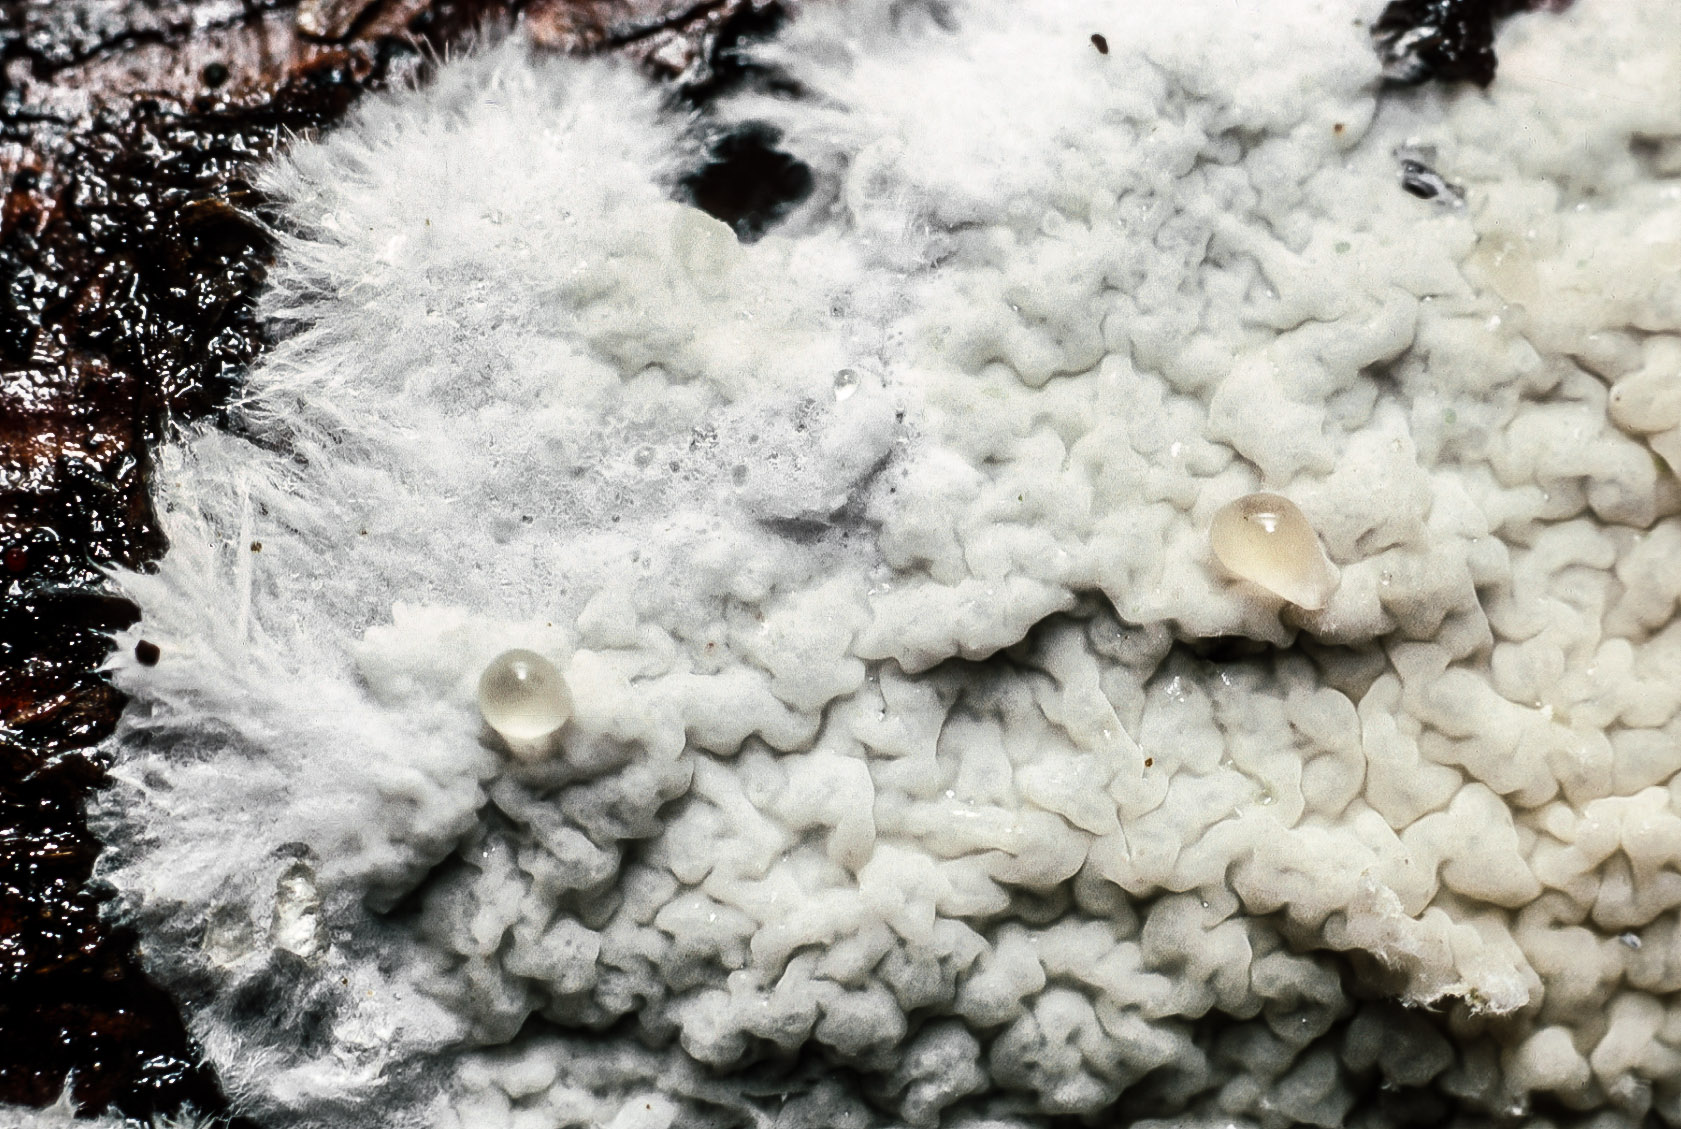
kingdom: Fungi
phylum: Basidiomycota
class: Agaricomycetes
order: Agaricales
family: Pterulaceae
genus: Merulicium
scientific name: Merulicium fusisporum
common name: nålekvas-naftalinskind
